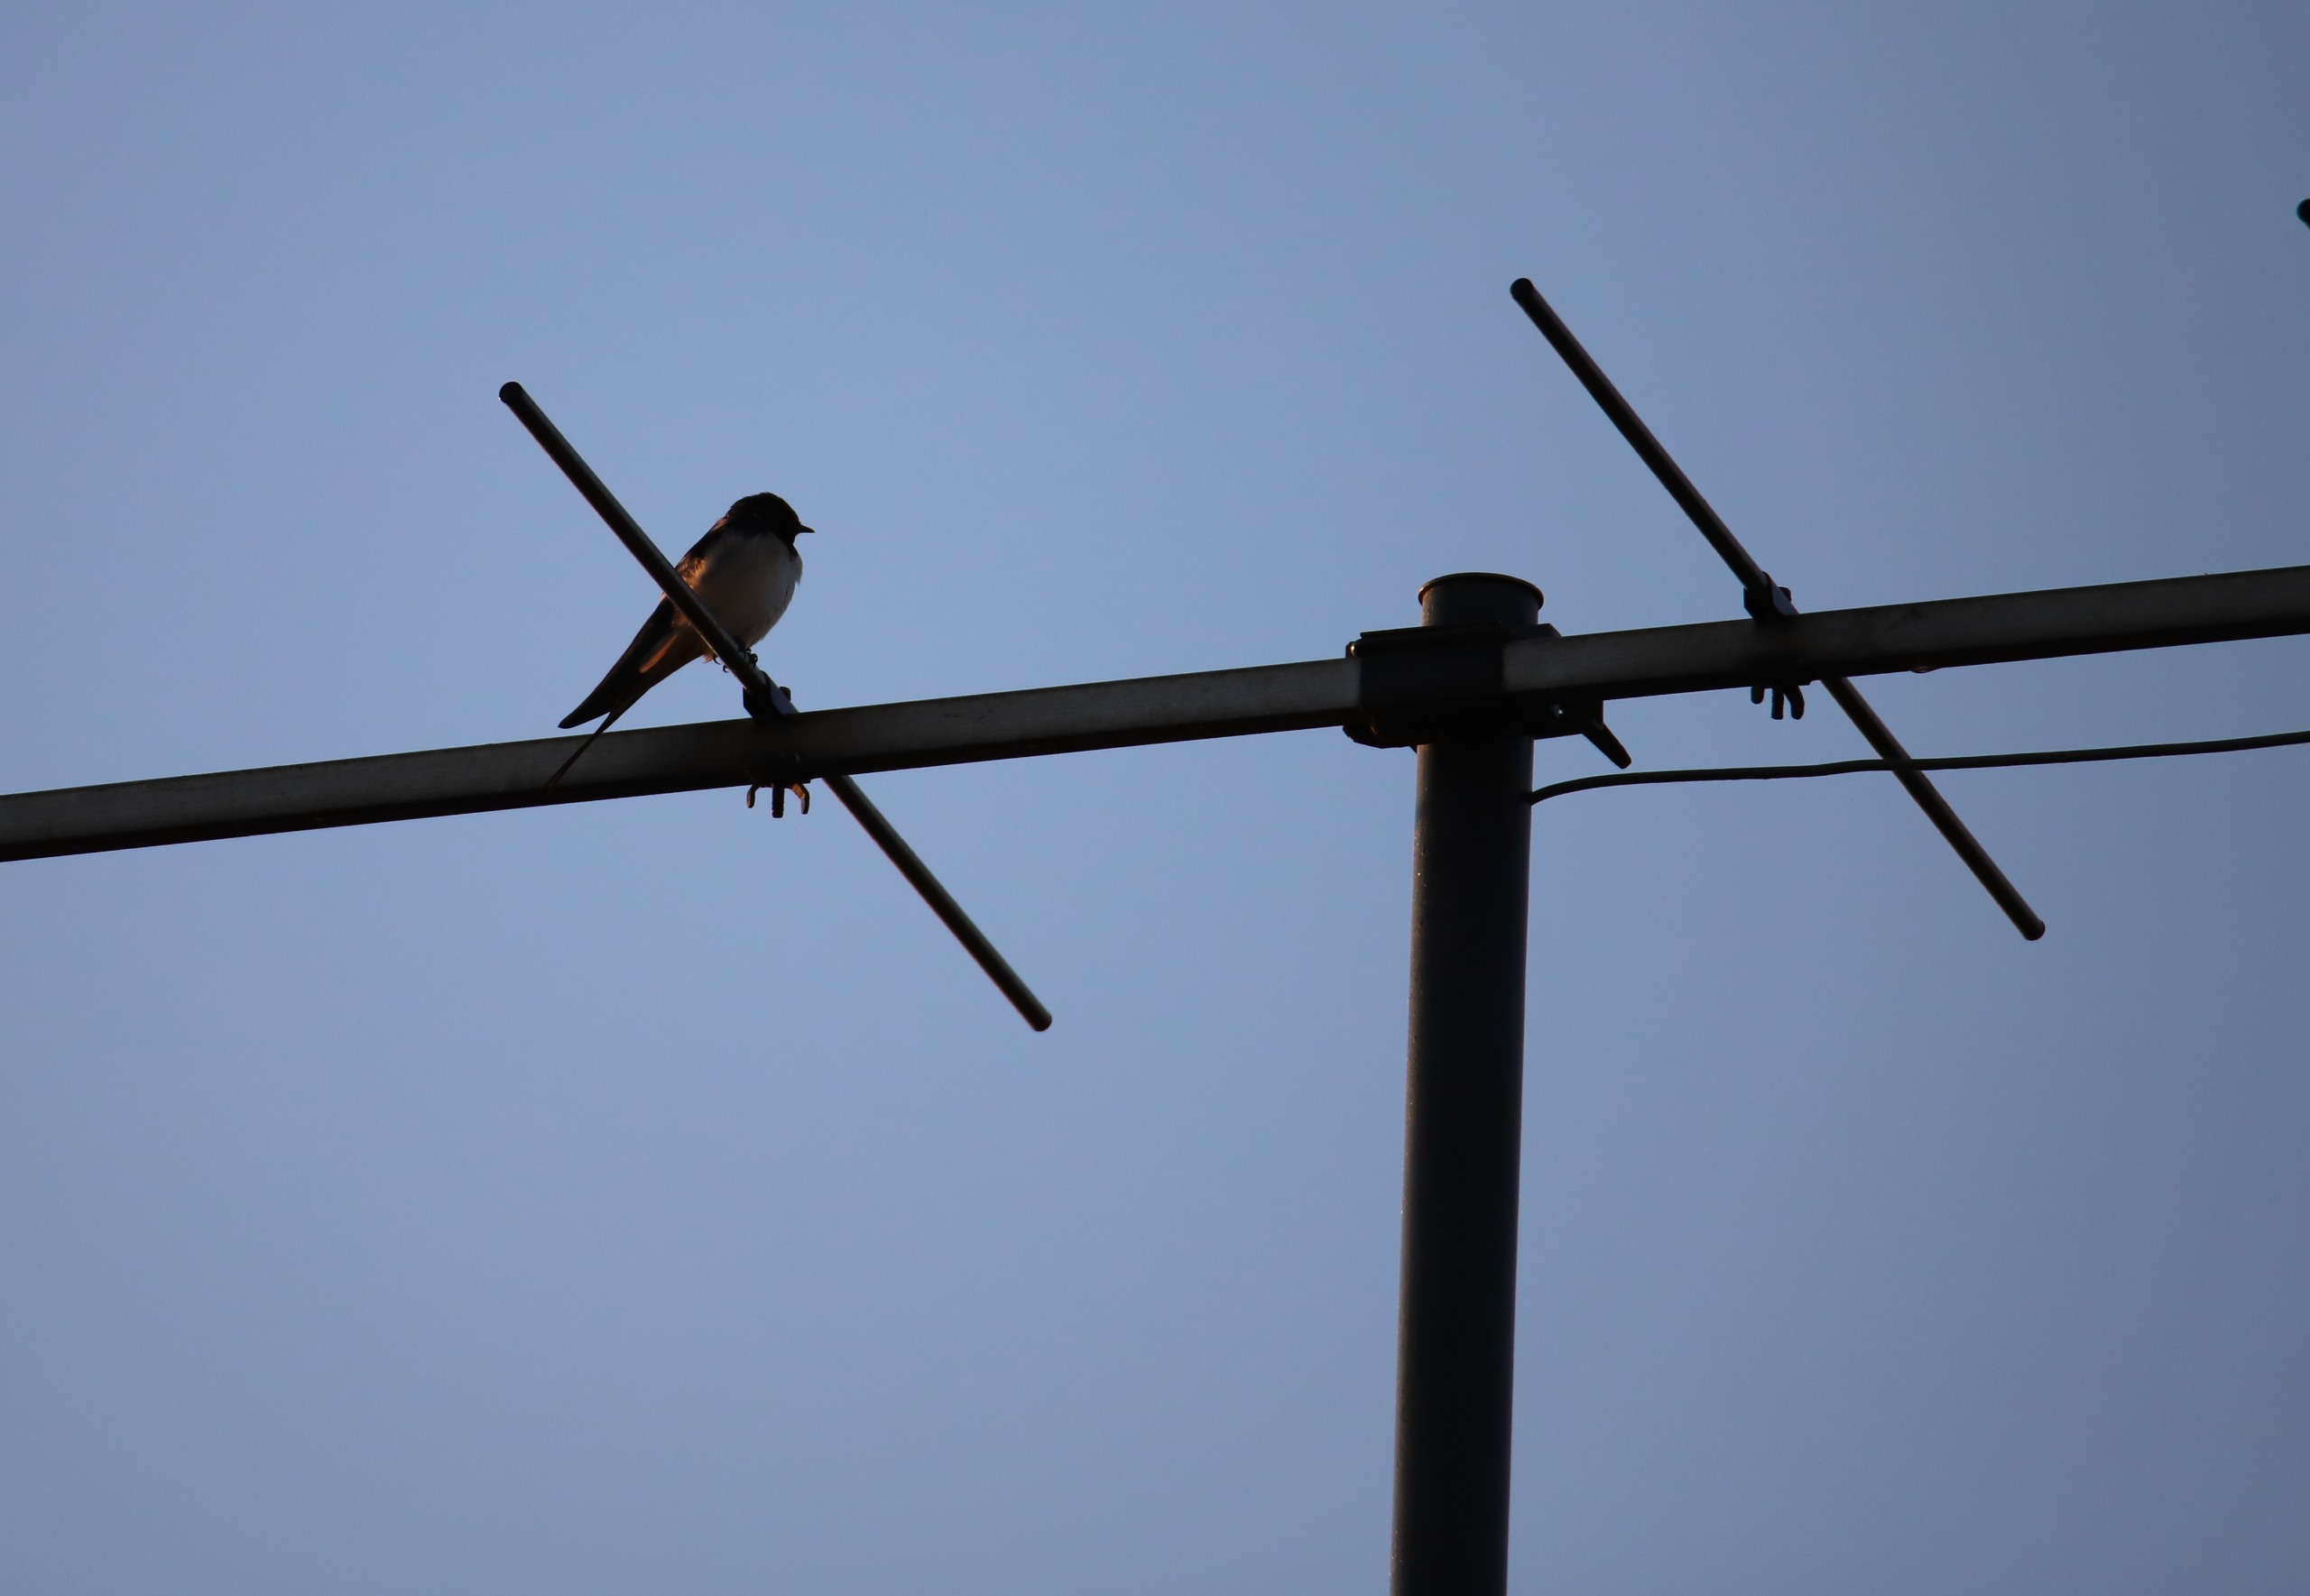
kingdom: Animalia
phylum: Chordata
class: Aves
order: Passeriformes
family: Hirundinidae
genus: Hirundo
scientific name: Hirundo rustica
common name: Landsvale
